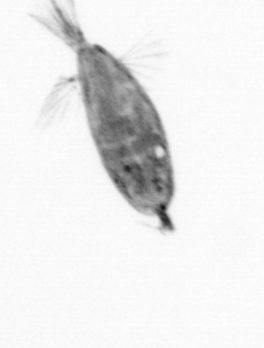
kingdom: Animalia
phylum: Arthropoda
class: Maxillopoda
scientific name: Maxillopoda
